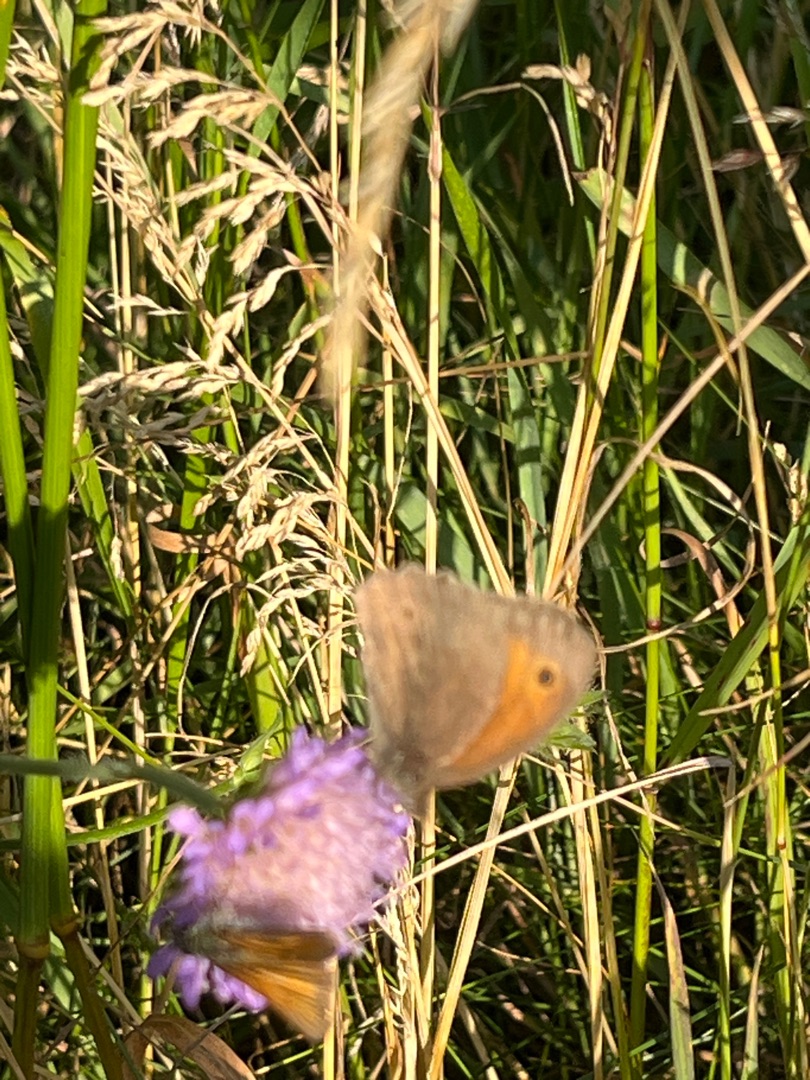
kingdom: Animalia
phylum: Arthropoda
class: Insecta
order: Lepidoptera
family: Nymphalidae
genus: Maniola
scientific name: Maniola jurtina
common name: Græsrandøje
